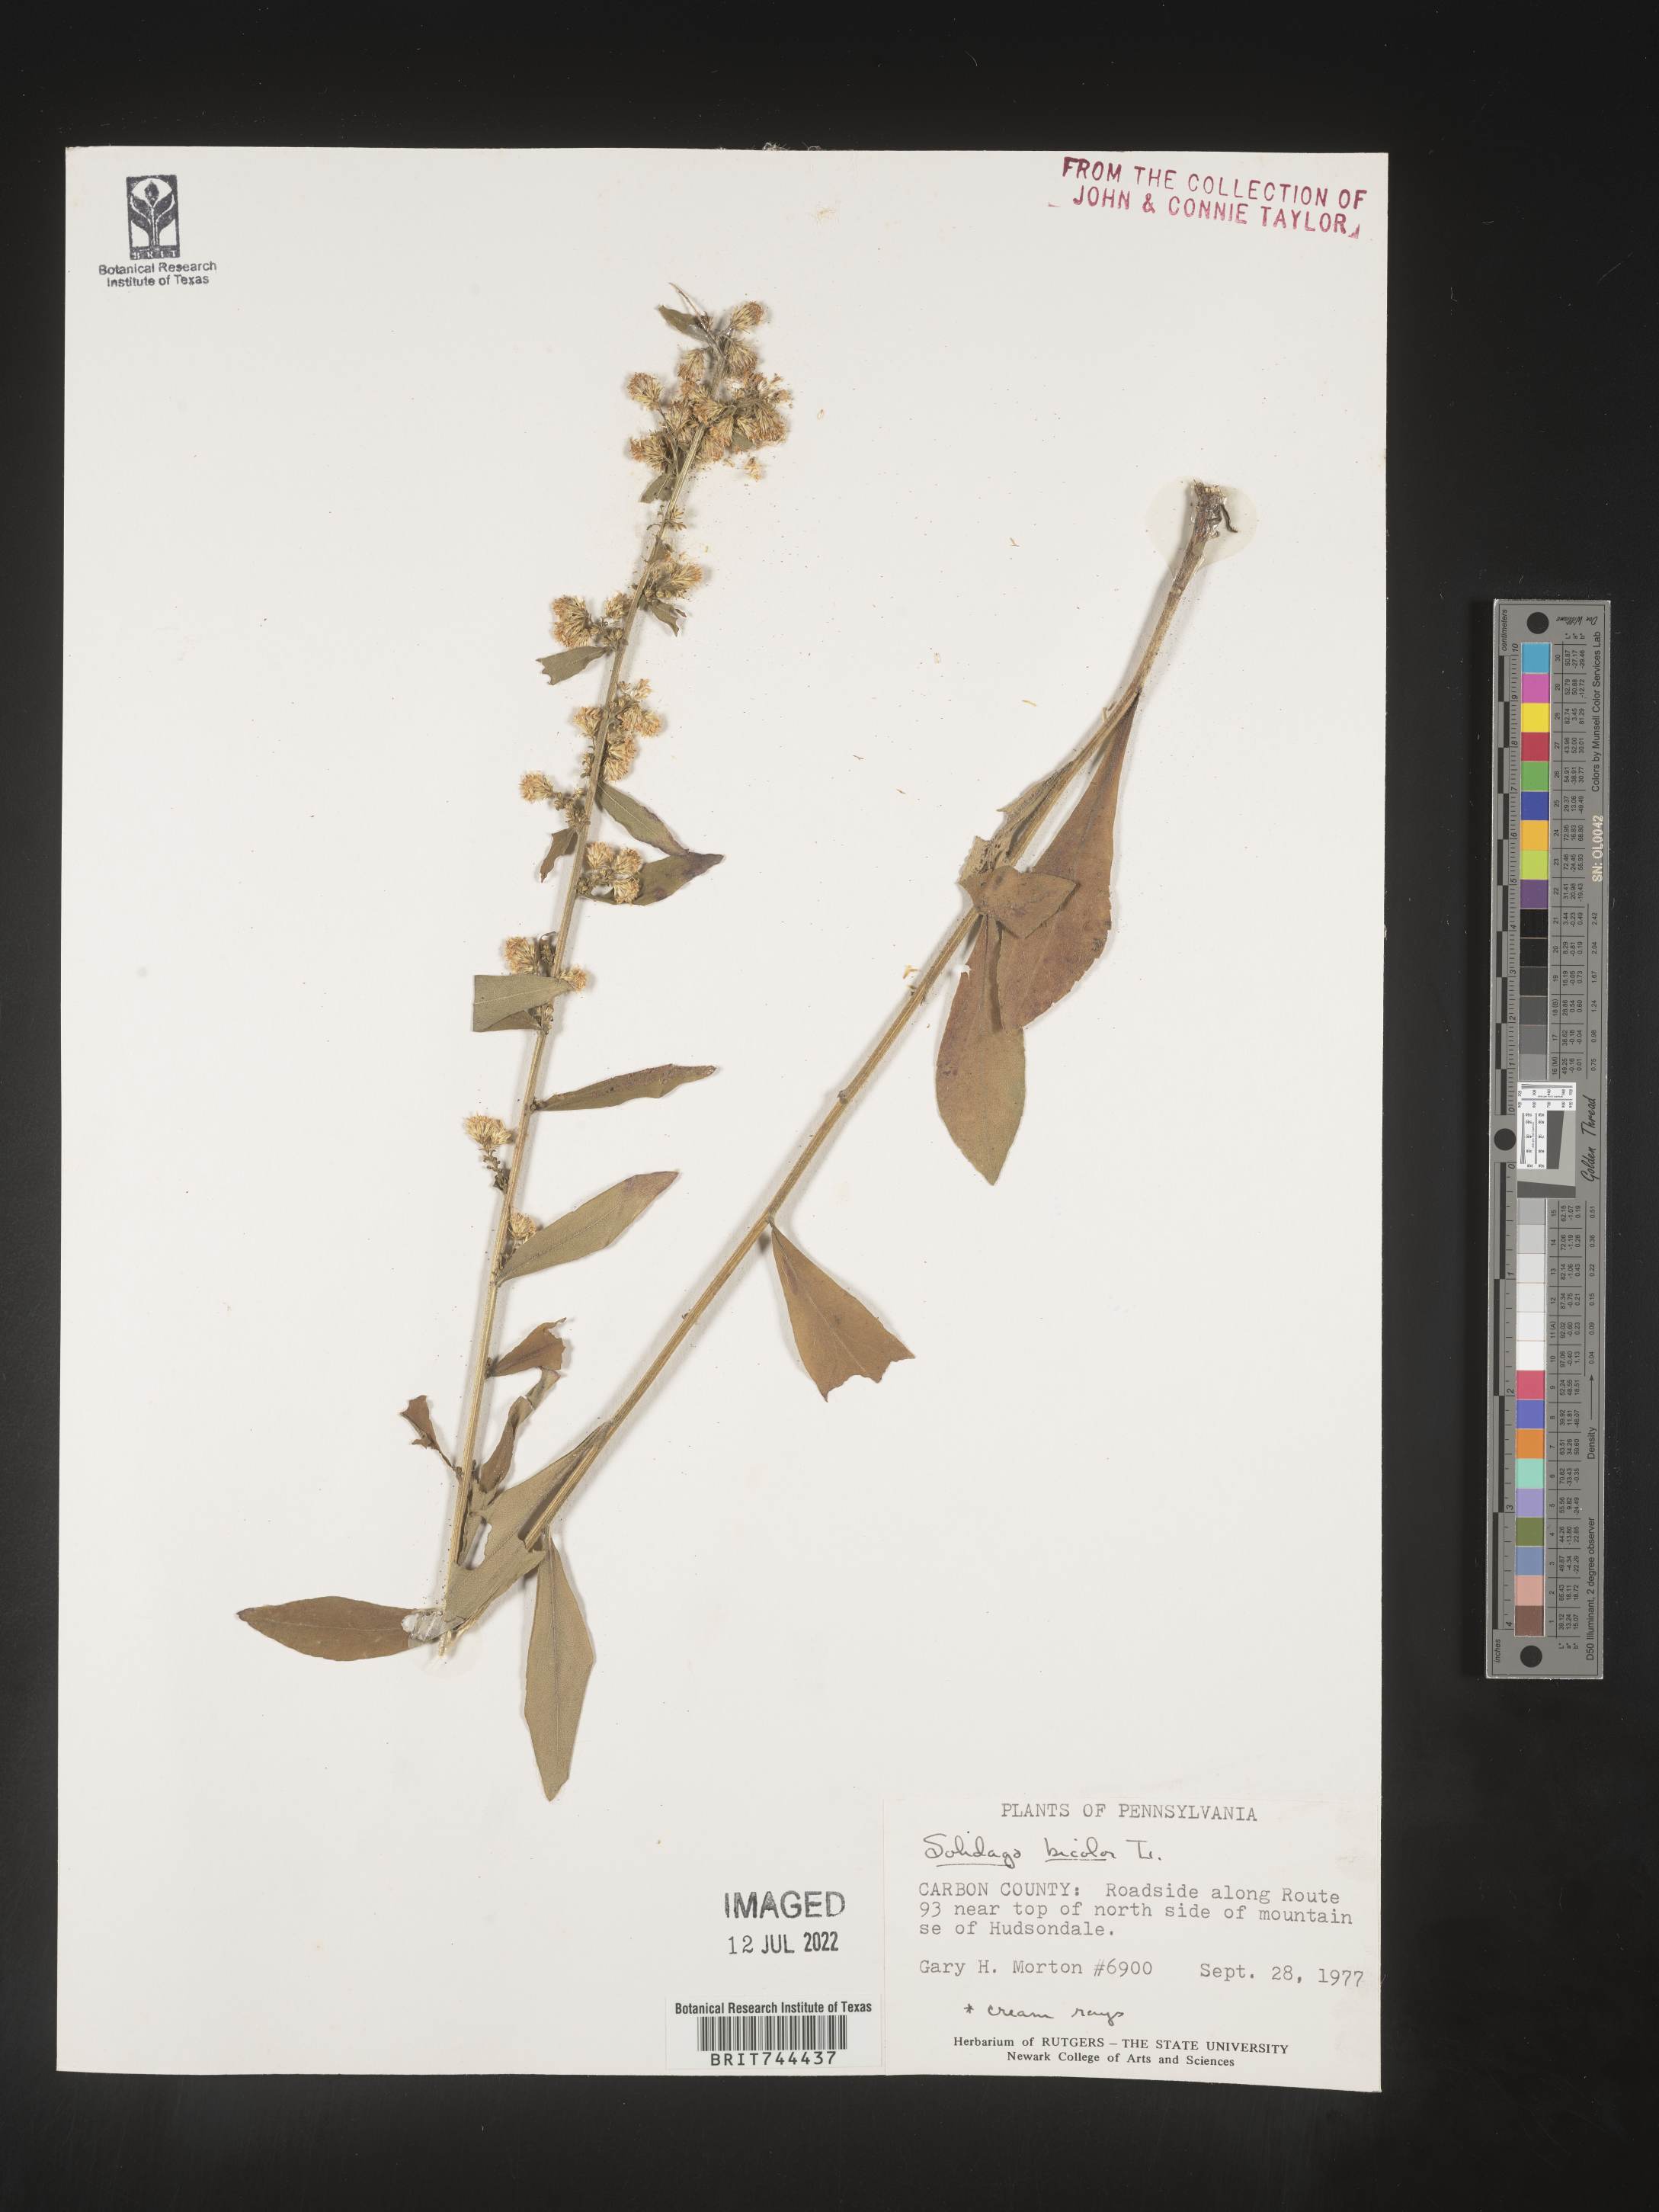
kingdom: Plantae
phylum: Tracheophyta
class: Magnoliopsida
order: Asterales
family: Asteraceae
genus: Solidago
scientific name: Solidago bicolor
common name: Silverrod
